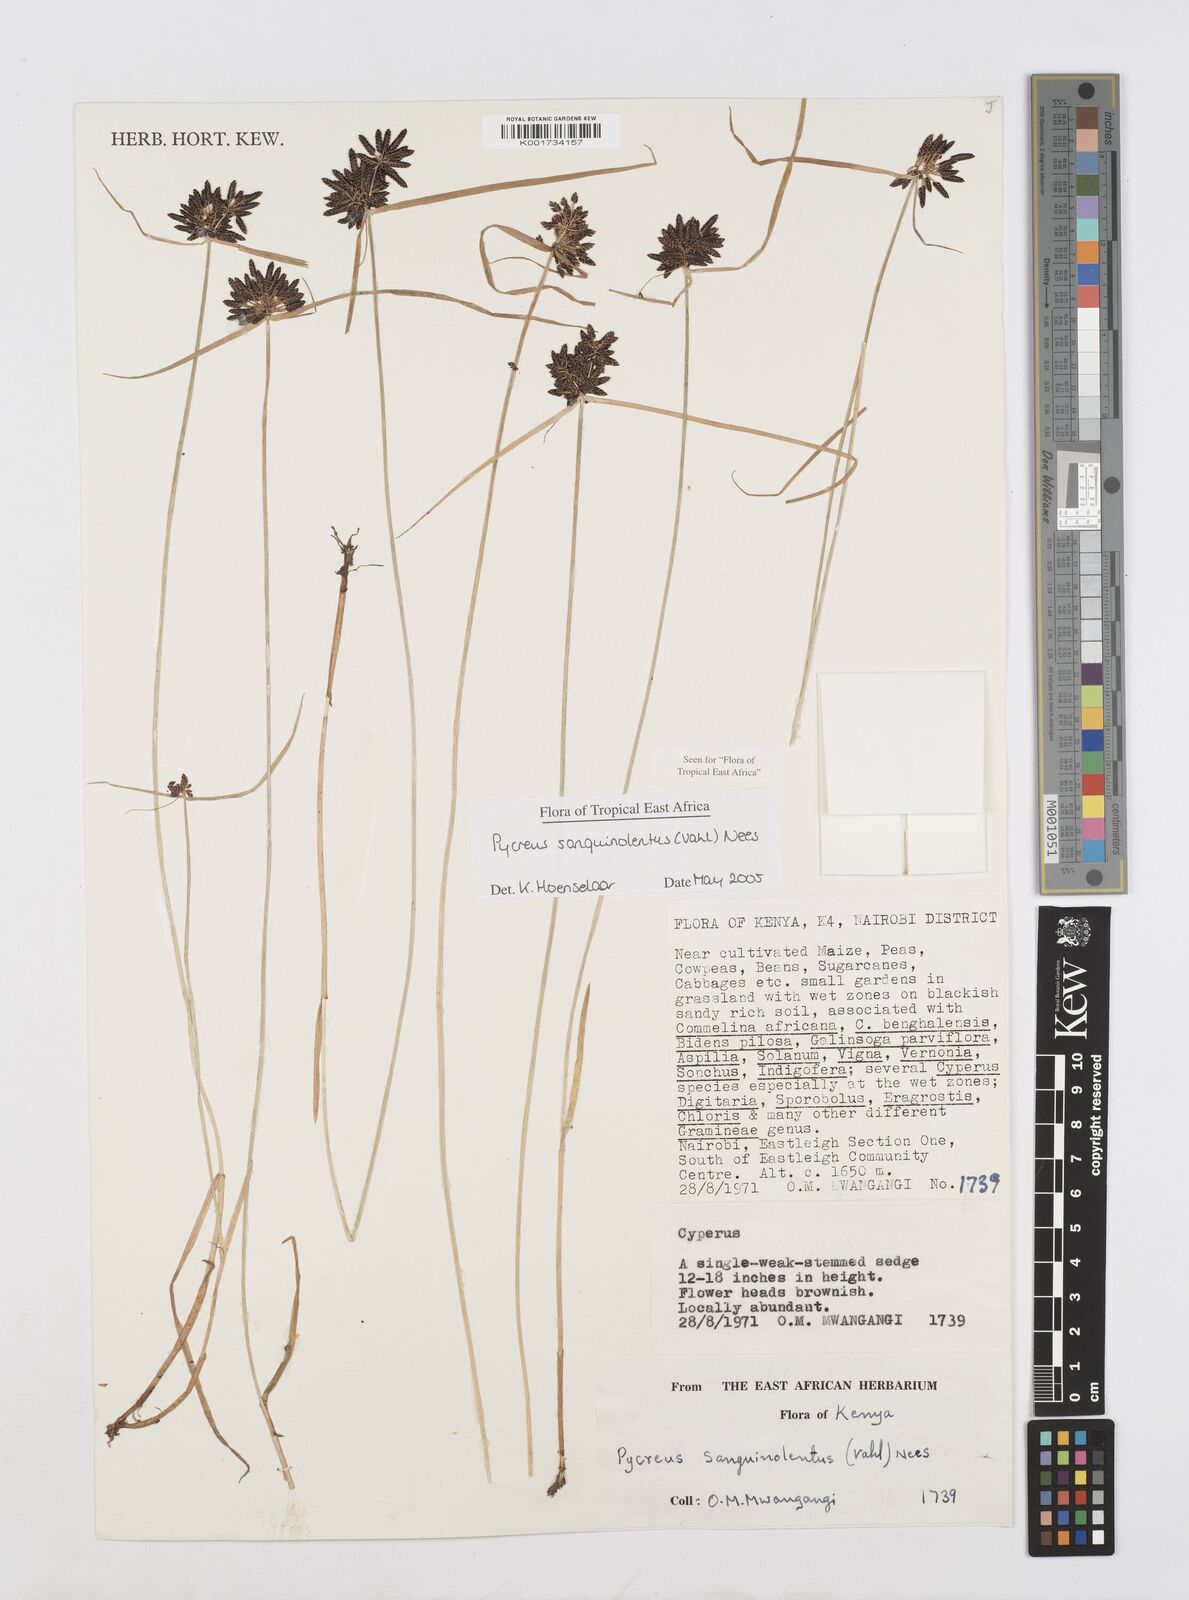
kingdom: Plantae
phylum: Tracheophyta
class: Liliopsida
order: Poales
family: Cyperaceae
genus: Cyperus
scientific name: Cyperus sanguinolentus
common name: Purpleglume flatsedge
